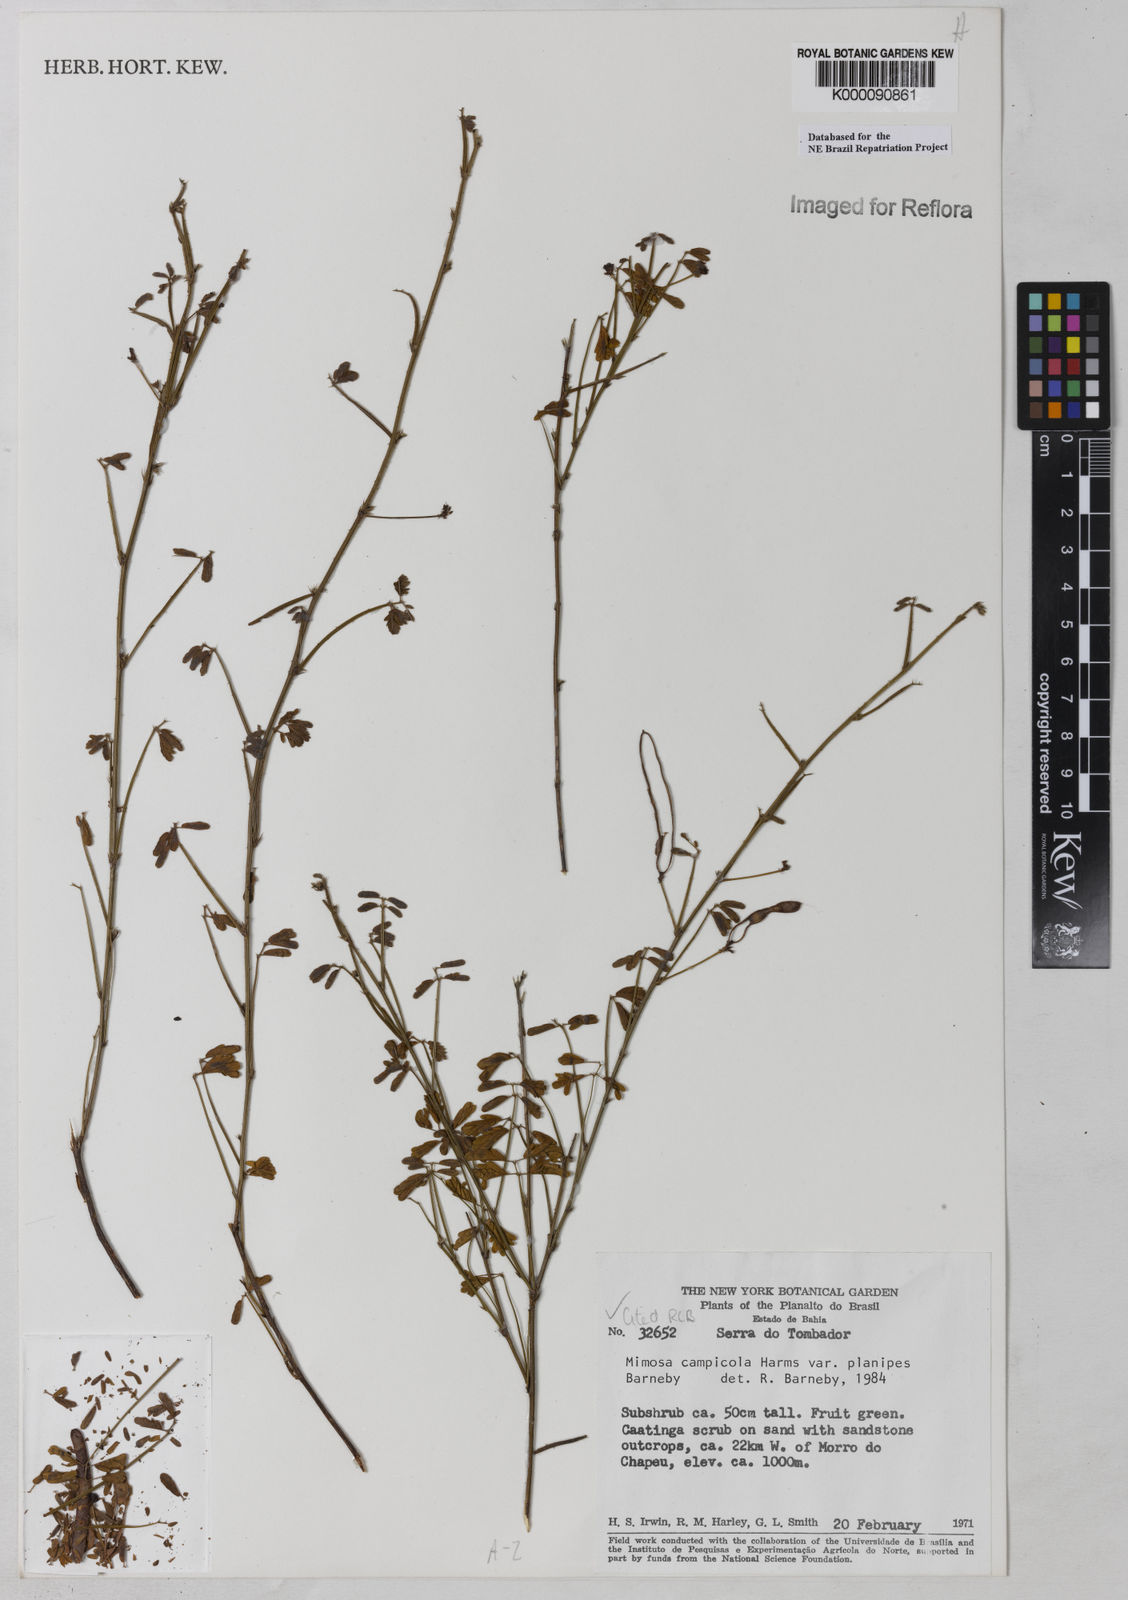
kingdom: Plantae
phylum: Tracheophyta
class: Magnoliopsida
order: Fabales
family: Fabaceae
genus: Mimosa
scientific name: Mimosa campicola
